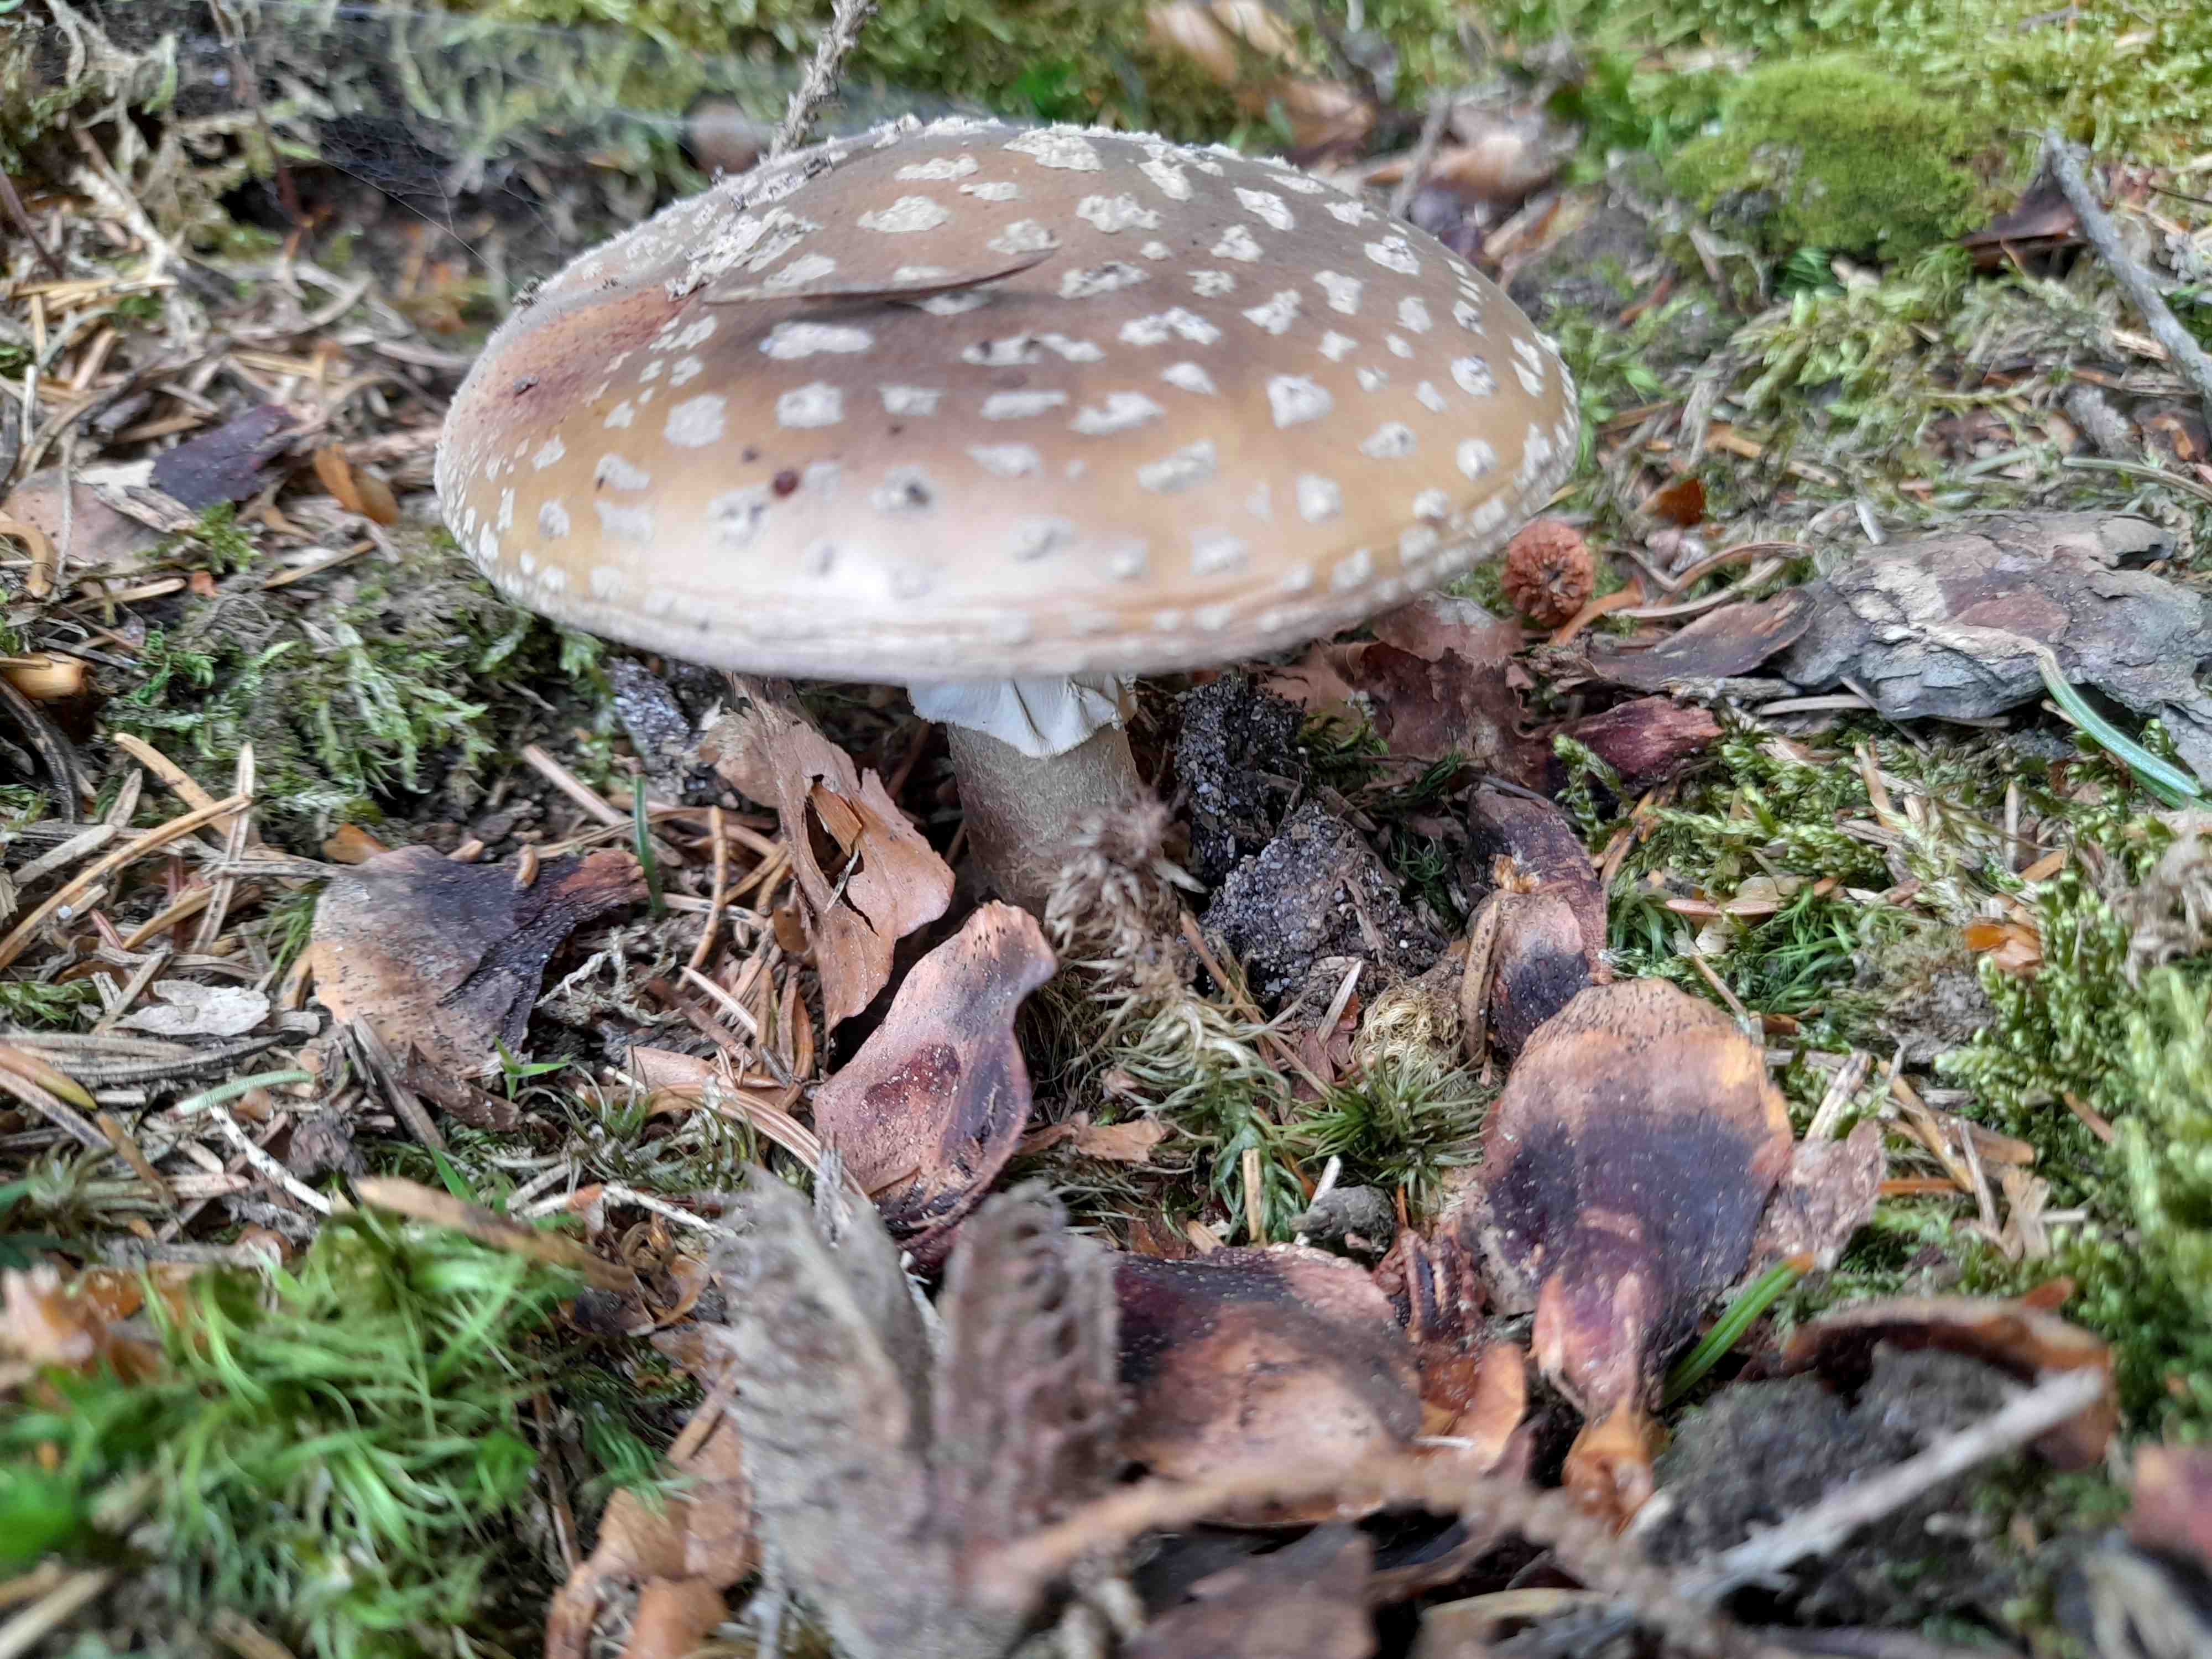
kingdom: Fungi
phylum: Basidiomycota
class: Agaricomycetes
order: Agaricales
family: Amanitaceae
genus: Amanita
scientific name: Amanita
